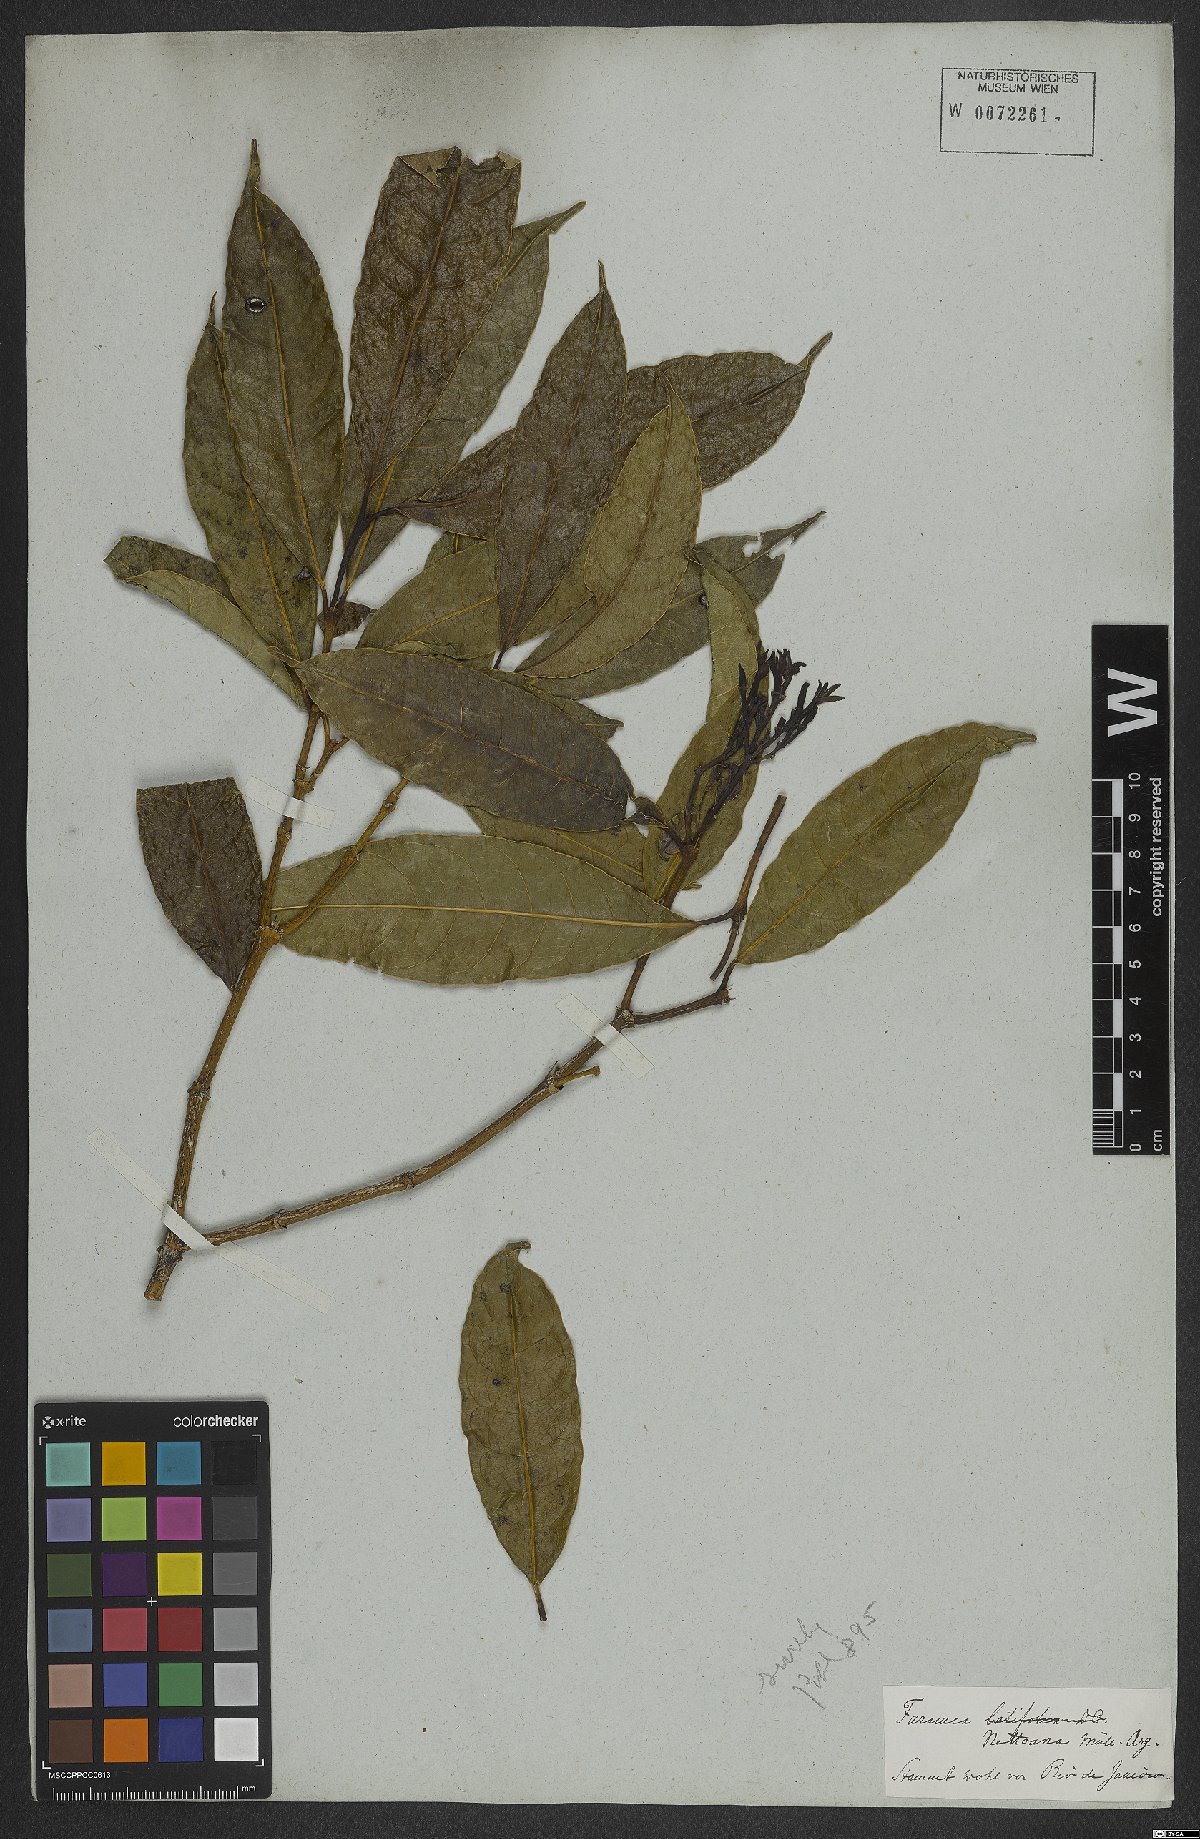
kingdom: Plantae
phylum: Tracheophyta
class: Magnoliopsida
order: Gentianales
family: Rubiaceae
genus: Faramea
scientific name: Faramea nigrescens
